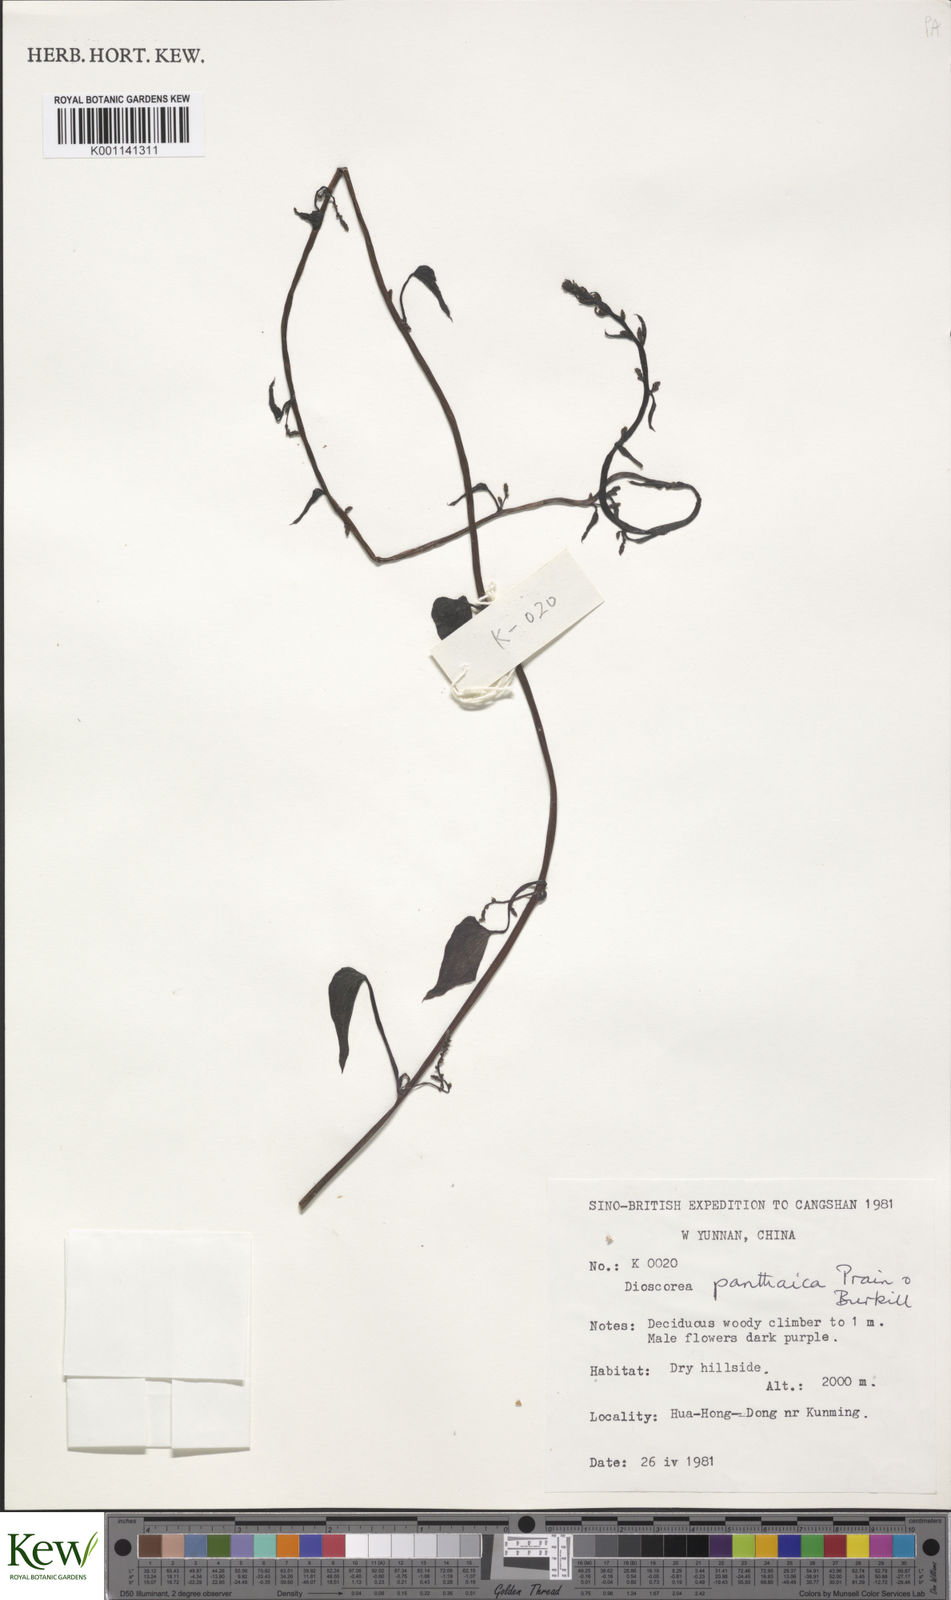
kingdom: Plantae
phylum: Tracheophyta
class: Liliopsida
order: Dioscoreales
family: Dioscoreaceae
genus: Dioscorea
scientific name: Dioscorea panthaica
